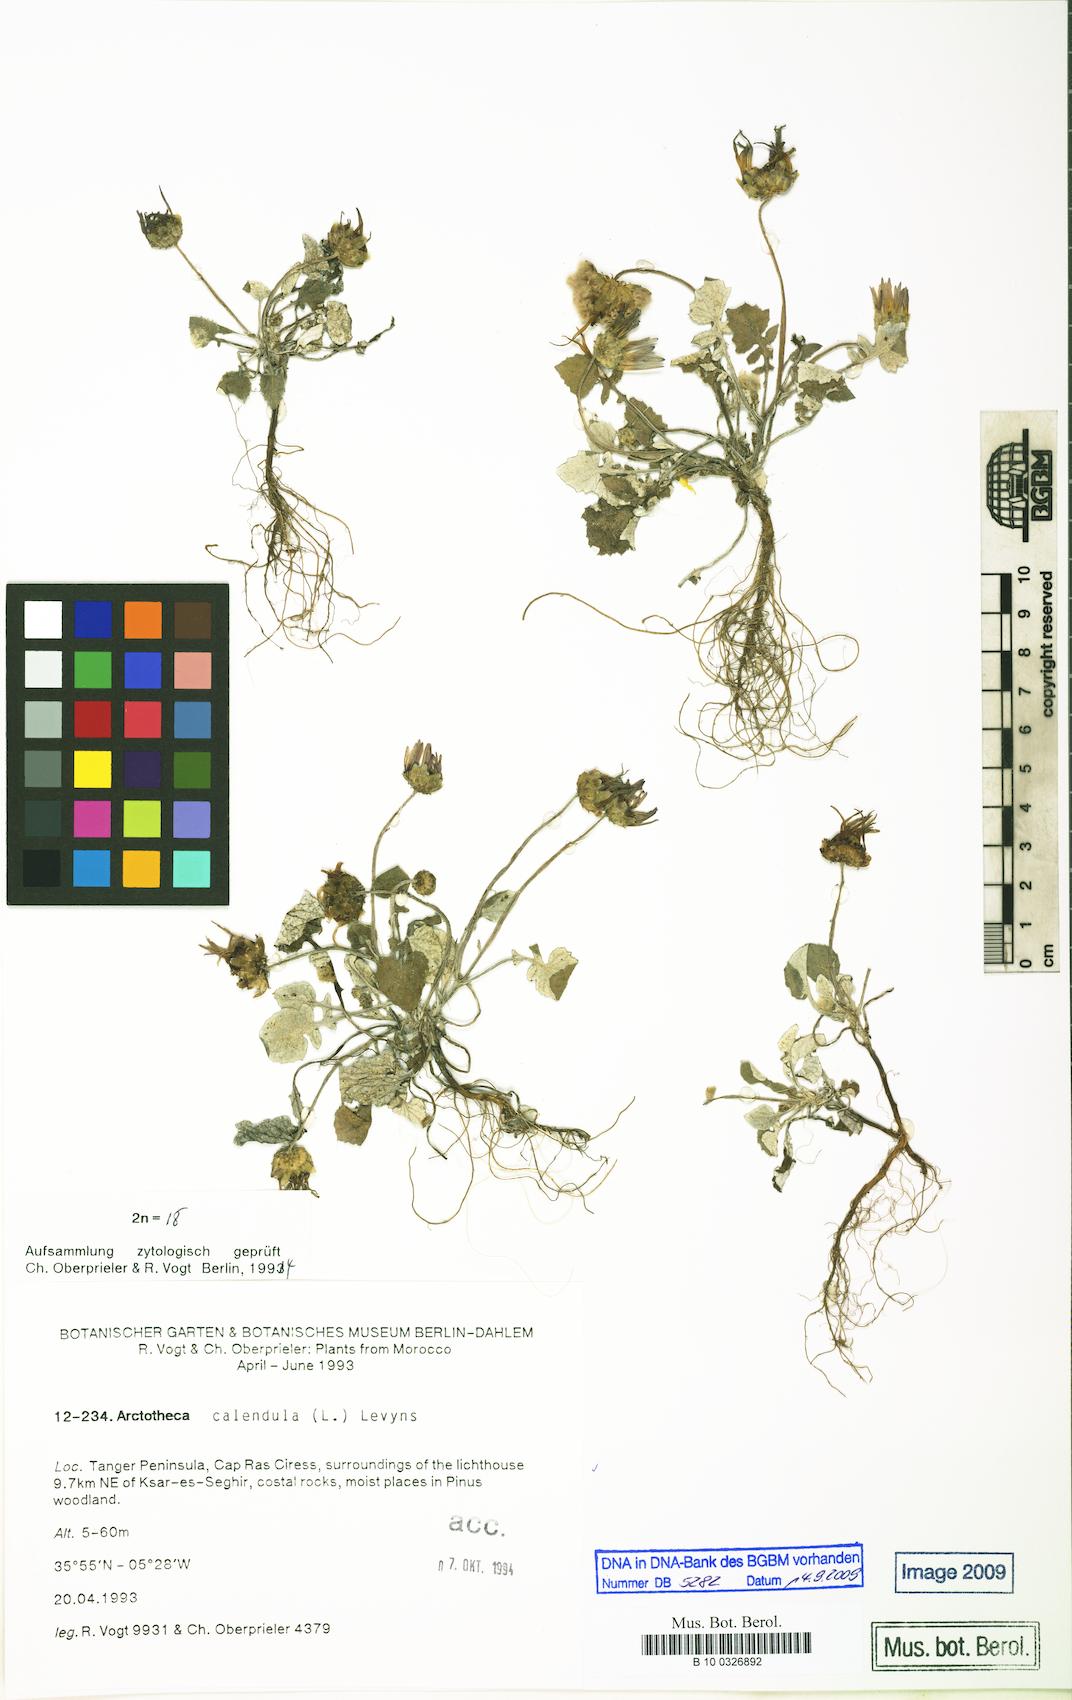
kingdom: Plantae
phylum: Tracheophyta
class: Magnoliopsida
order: Asterales
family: Asteraceae
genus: Arctotheca
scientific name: Arctotheca calendula
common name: Capeweed
